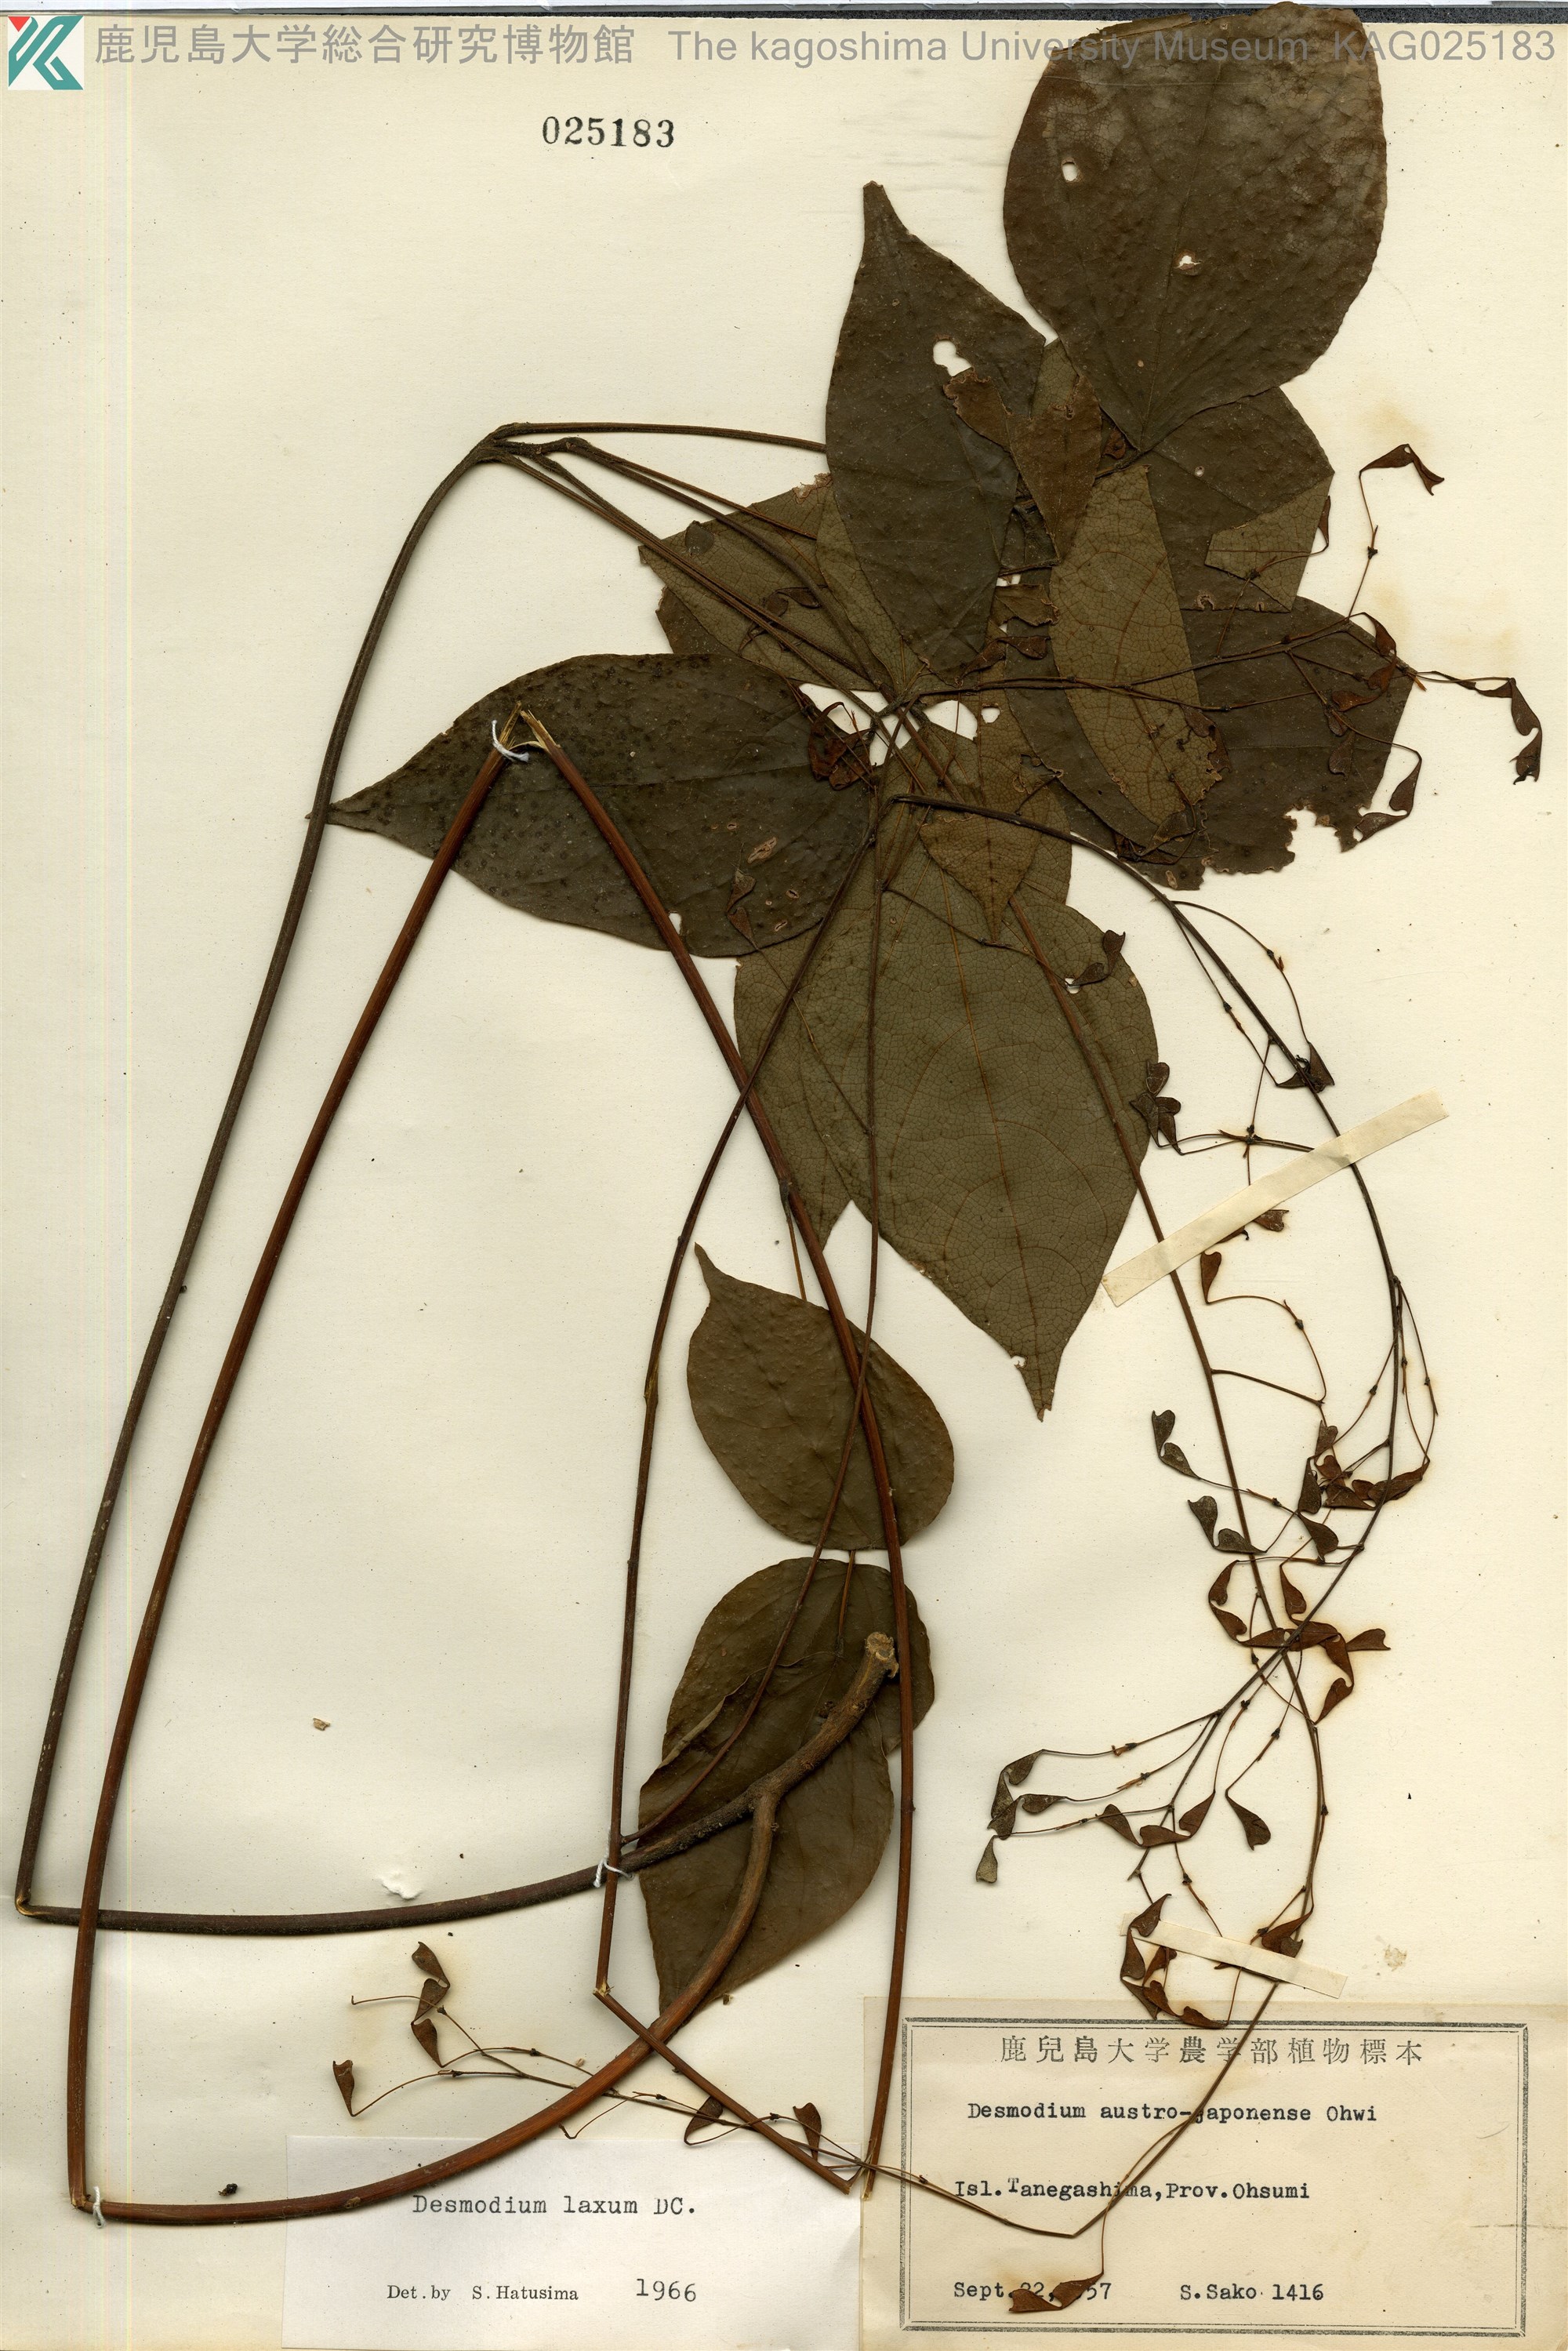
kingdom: Plantae
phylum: Tracheophyta
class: Magnoliopsida
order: Fabales
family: Fabaceae
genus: Desmodium
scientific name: Desmodium laxum
